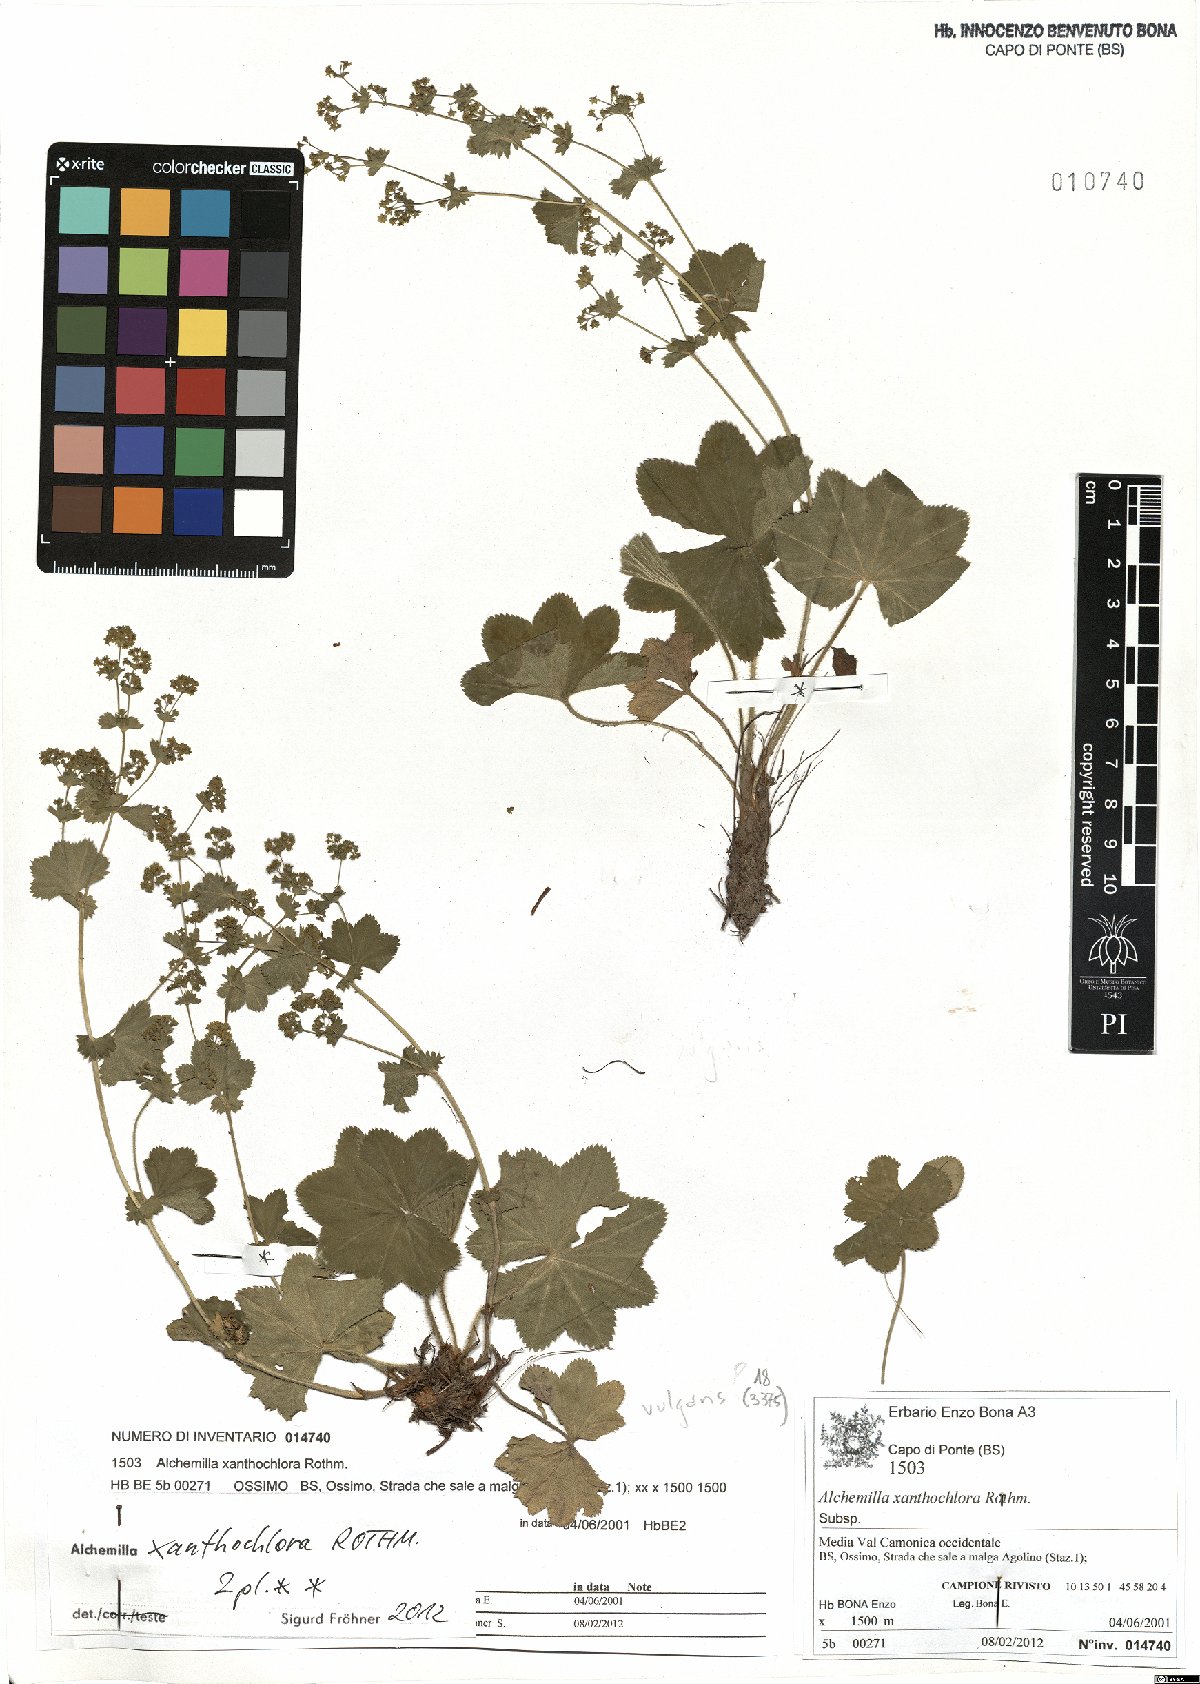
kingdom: Plantae
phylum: Tracheophyta
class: Magnoliopsida
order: Rosales
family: Rosaceae
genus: Alchemilla
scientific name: Alchemilla xanthochlora
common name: Intermediate lady's-mantle
